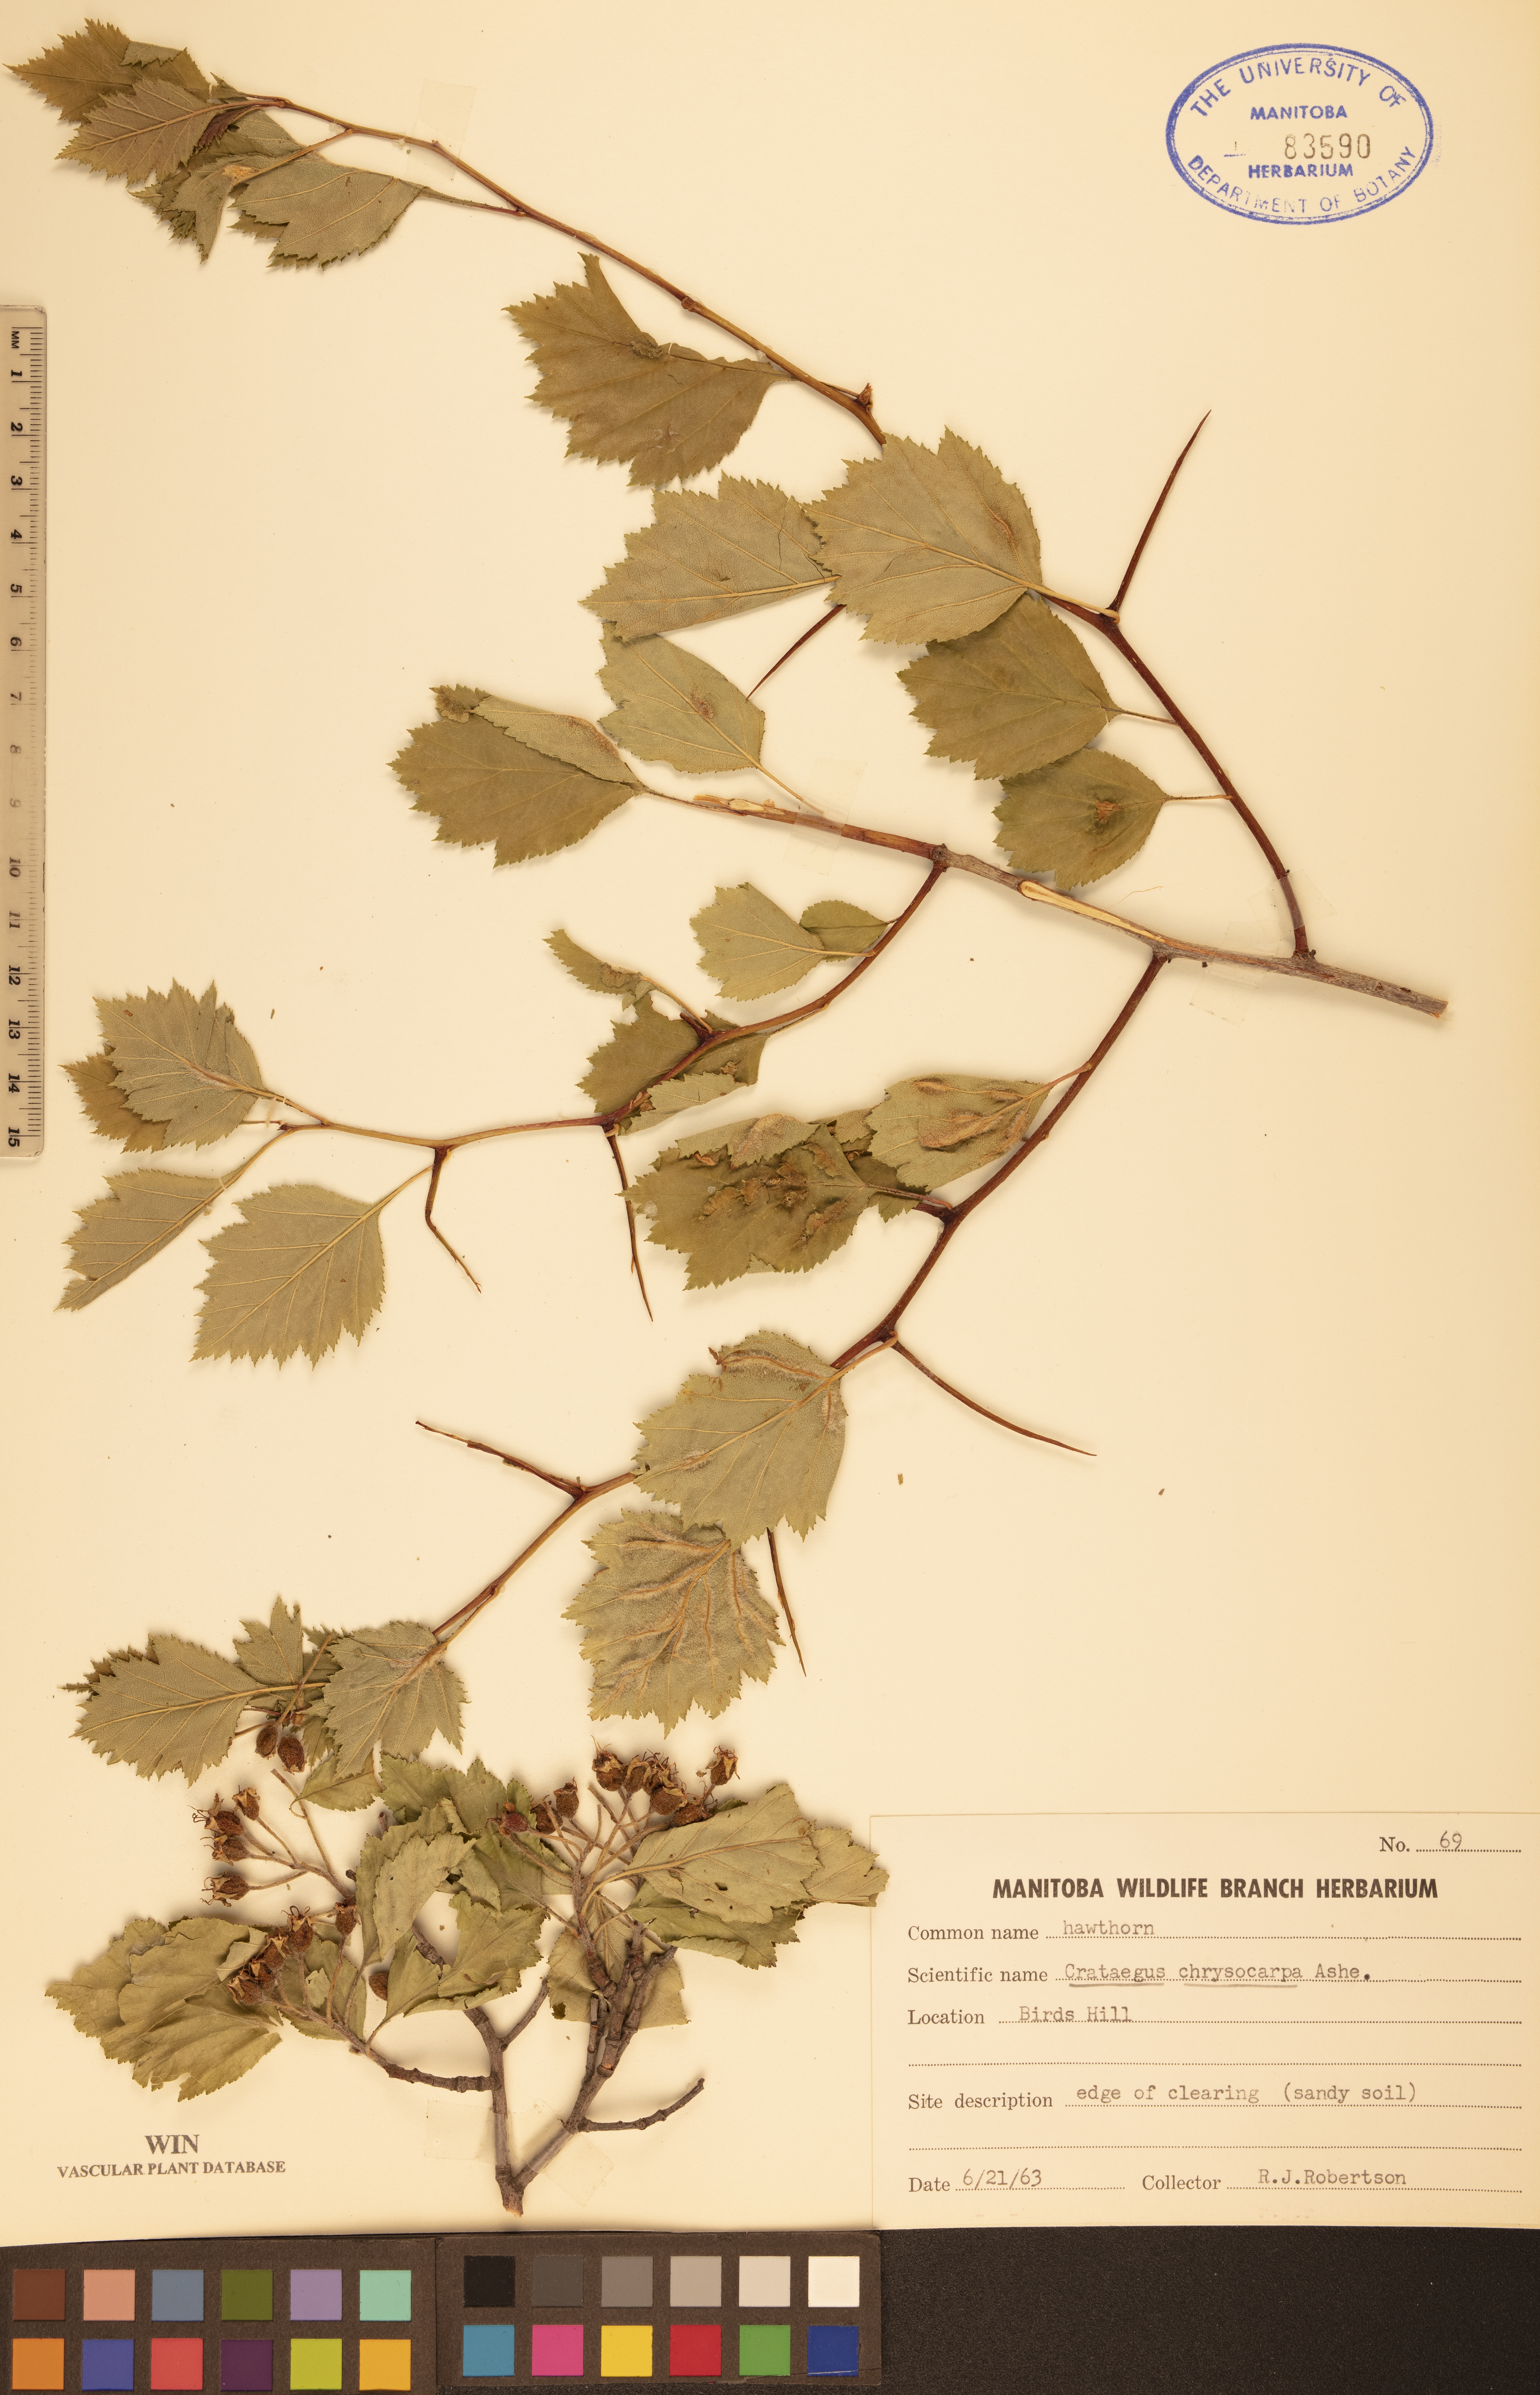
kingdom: Plantae
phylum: Tracheophyta
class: Magnoliopsida
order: Rosales
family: Rosaceae
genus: Crataegus
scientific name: Crataegus chrysocarpa
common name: Fire-berry hawthorn
